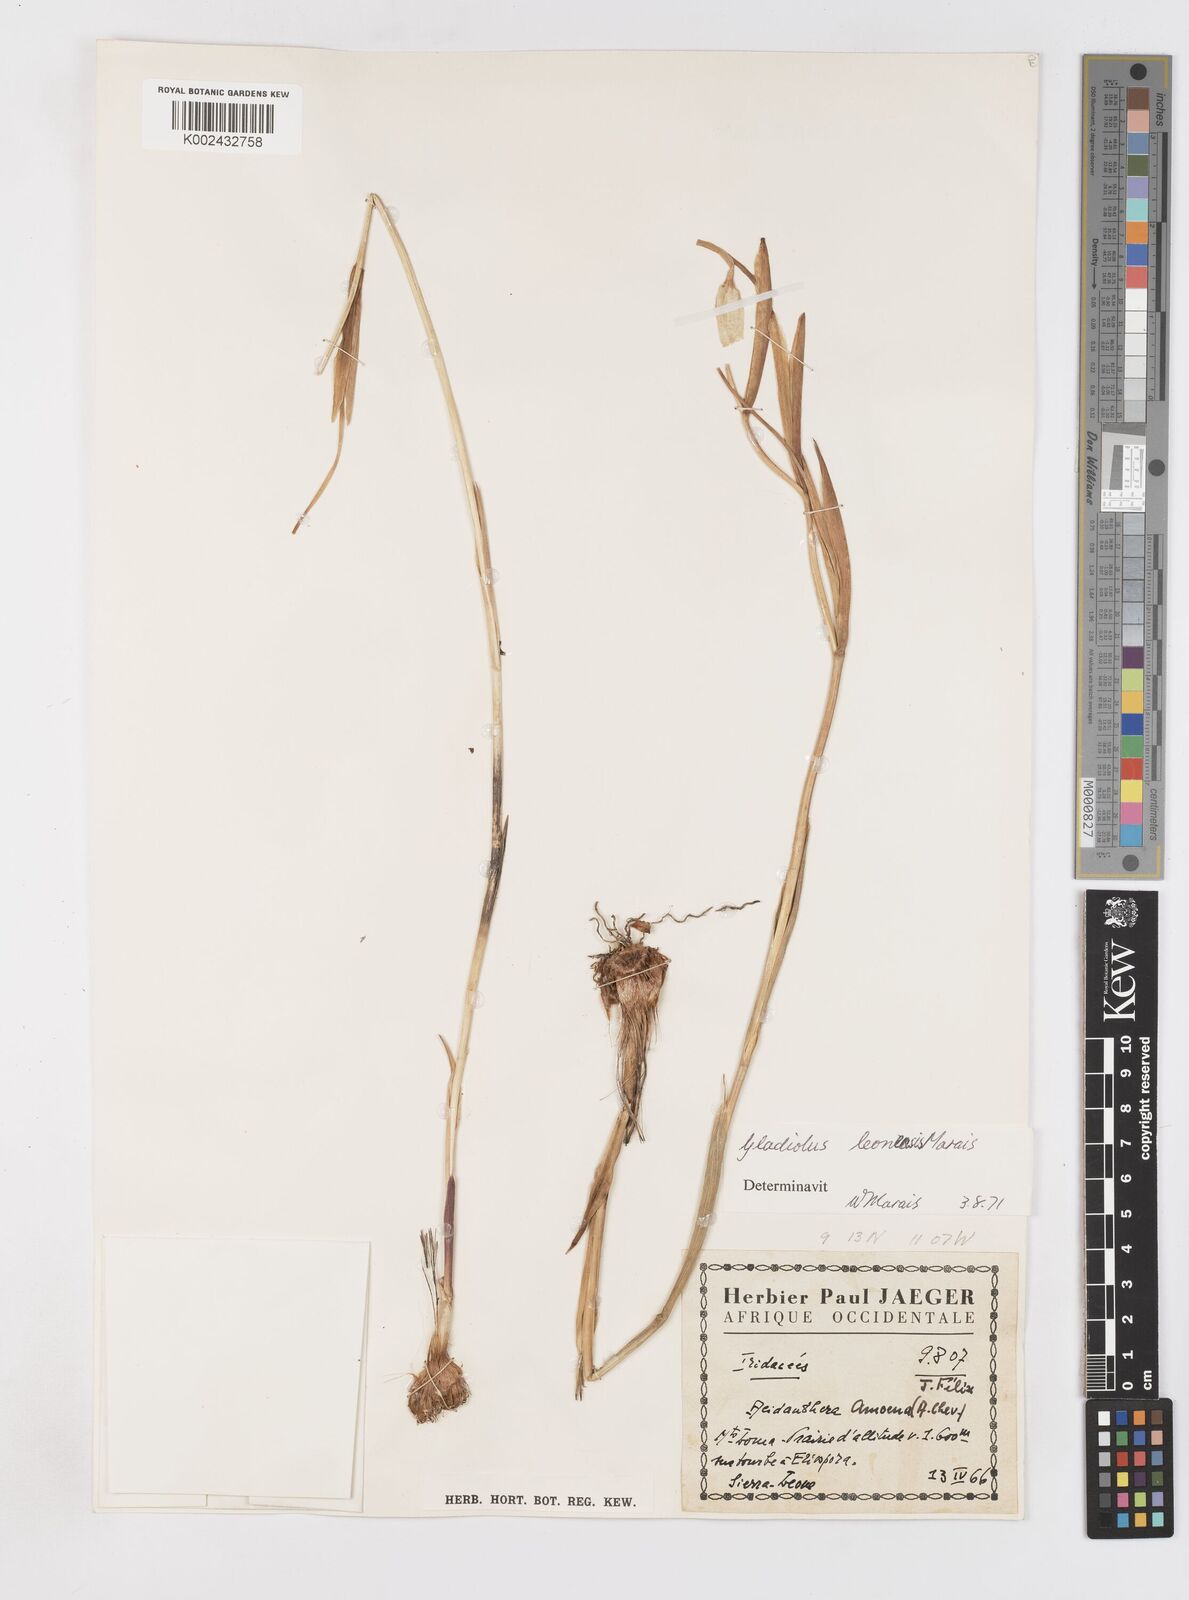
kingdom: Plantae
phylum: Tracheophyta
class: Liliopsida
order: Asparagales
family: Iridaceae
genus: Gladiolus
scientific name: Gladiolus leonensis
